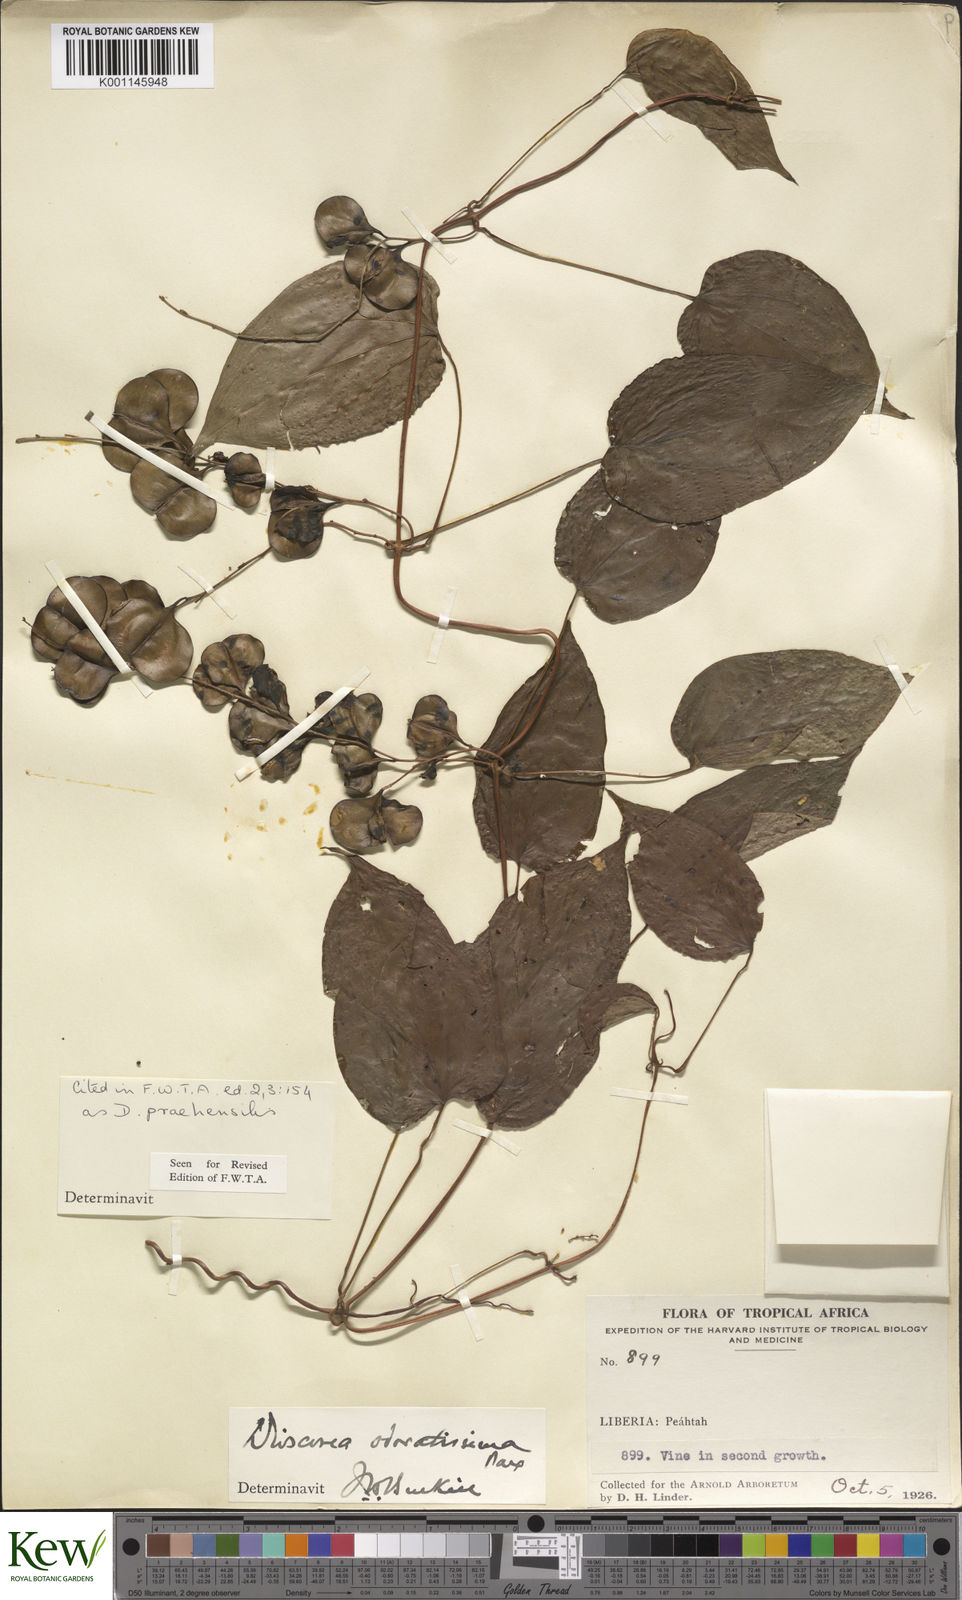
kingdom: Plantae
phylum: Tracheophyta
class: Liliopsida
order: Dioscoreales
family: Dioscoreaceae
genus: Dioscorea
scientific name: Dioscorea praehensilis
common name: Bush yam
